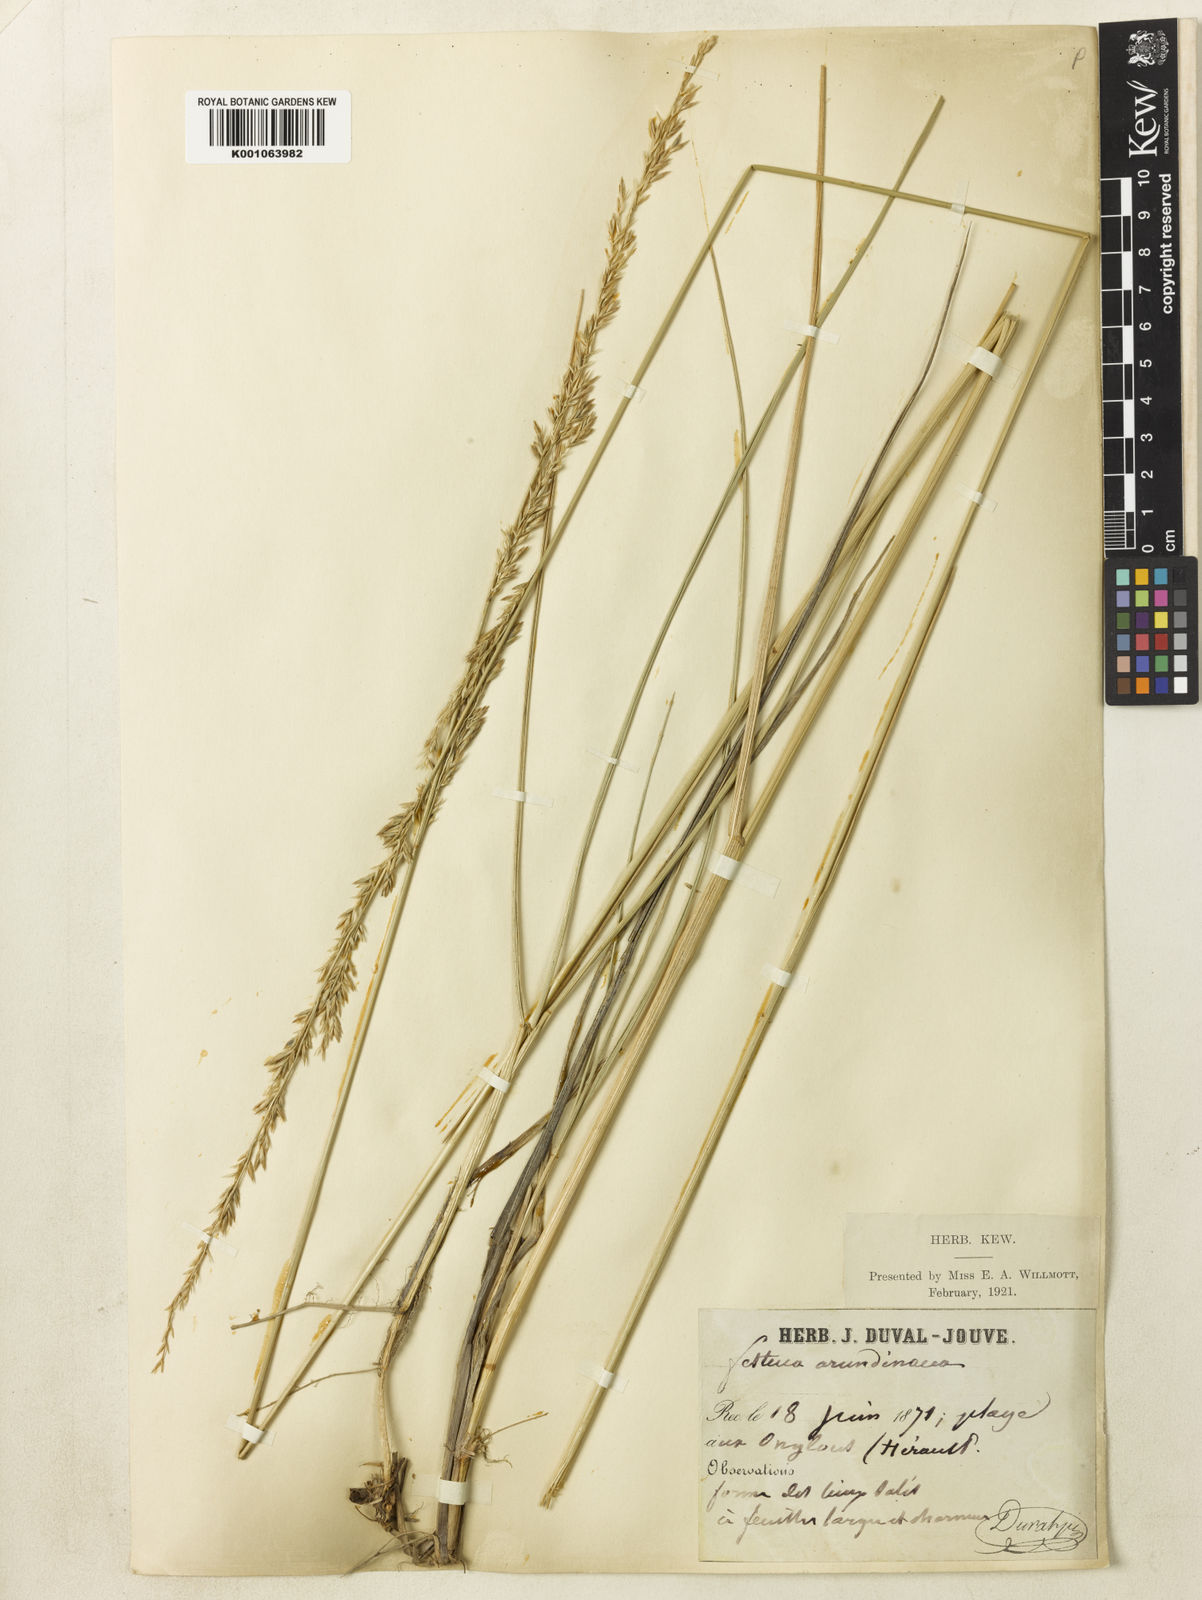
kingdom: Plantae
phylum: Tracheophyta
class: Liliopsida
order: Poales
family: Poaceae
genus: Lolium
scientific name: Lolium arundinaceum
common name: Reed fescue
